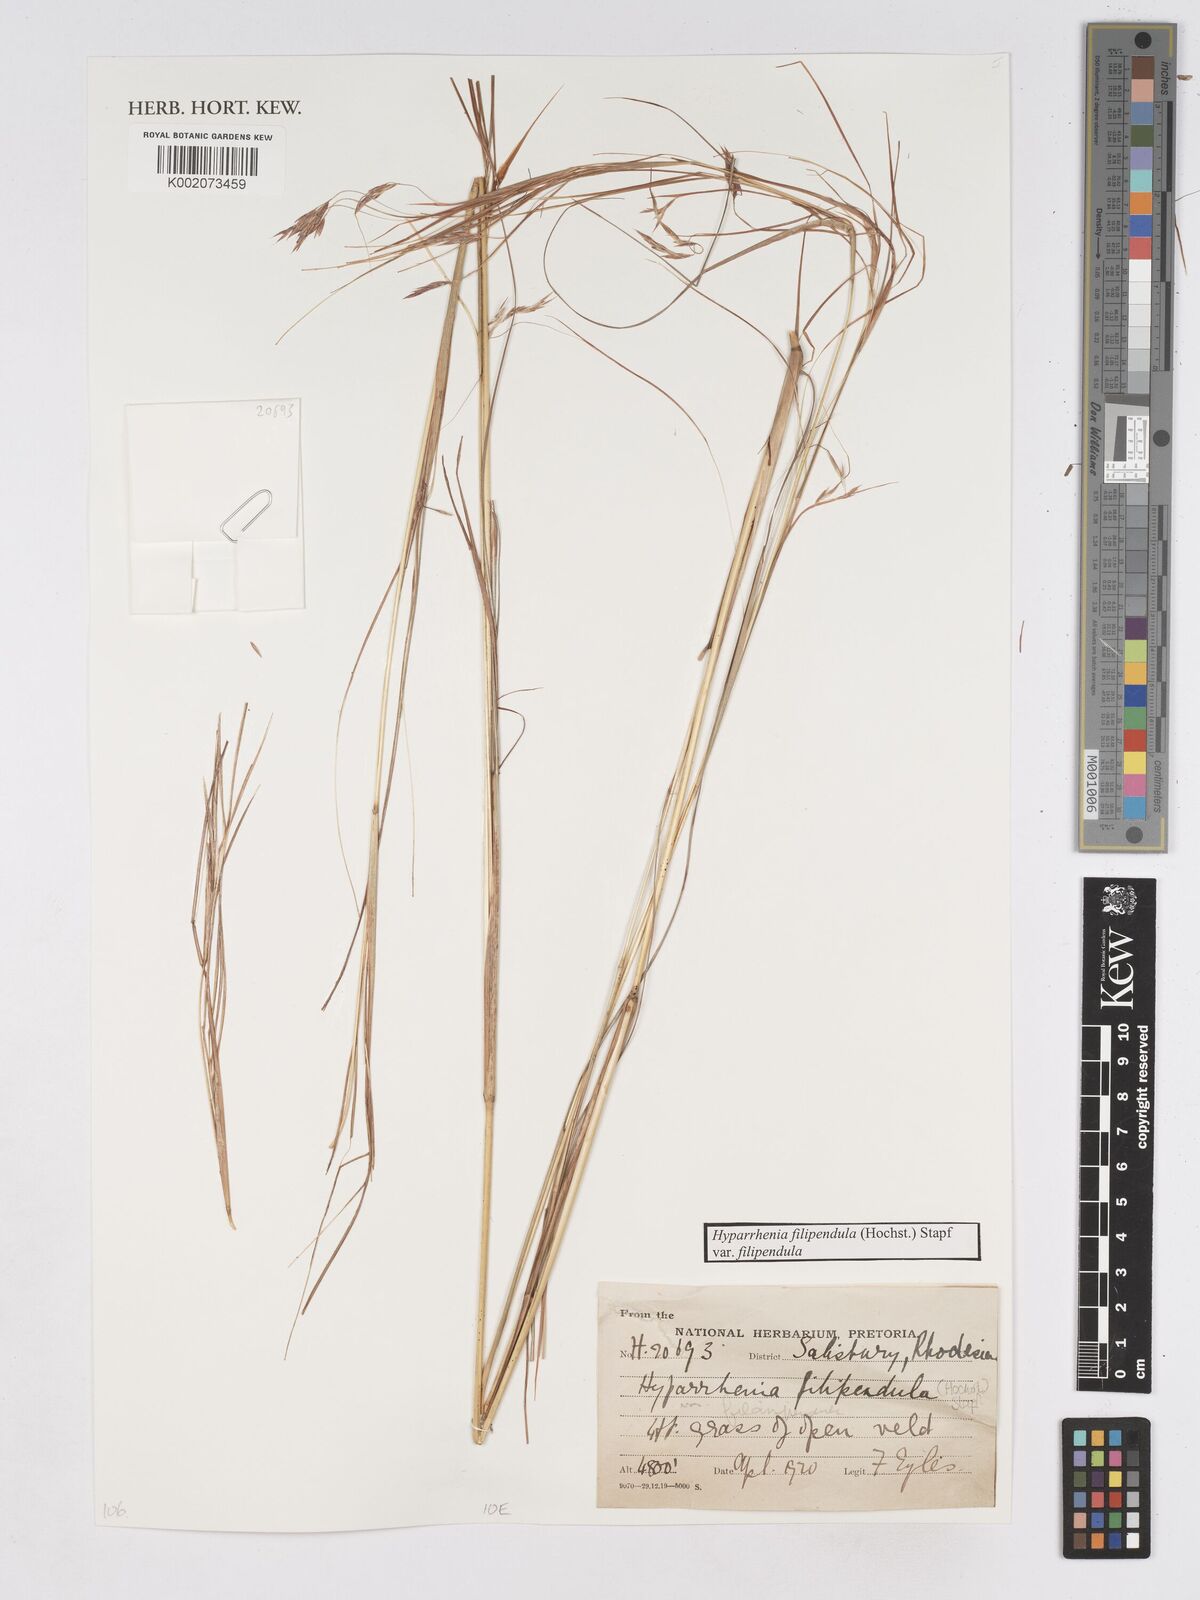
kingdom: Plantae
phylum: Tracheophyta
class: Liliopsida
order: Poales
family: Poaceae
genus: Hyparrhenia
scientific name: Hyparrhenia filipendula
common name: Tambookie grass
